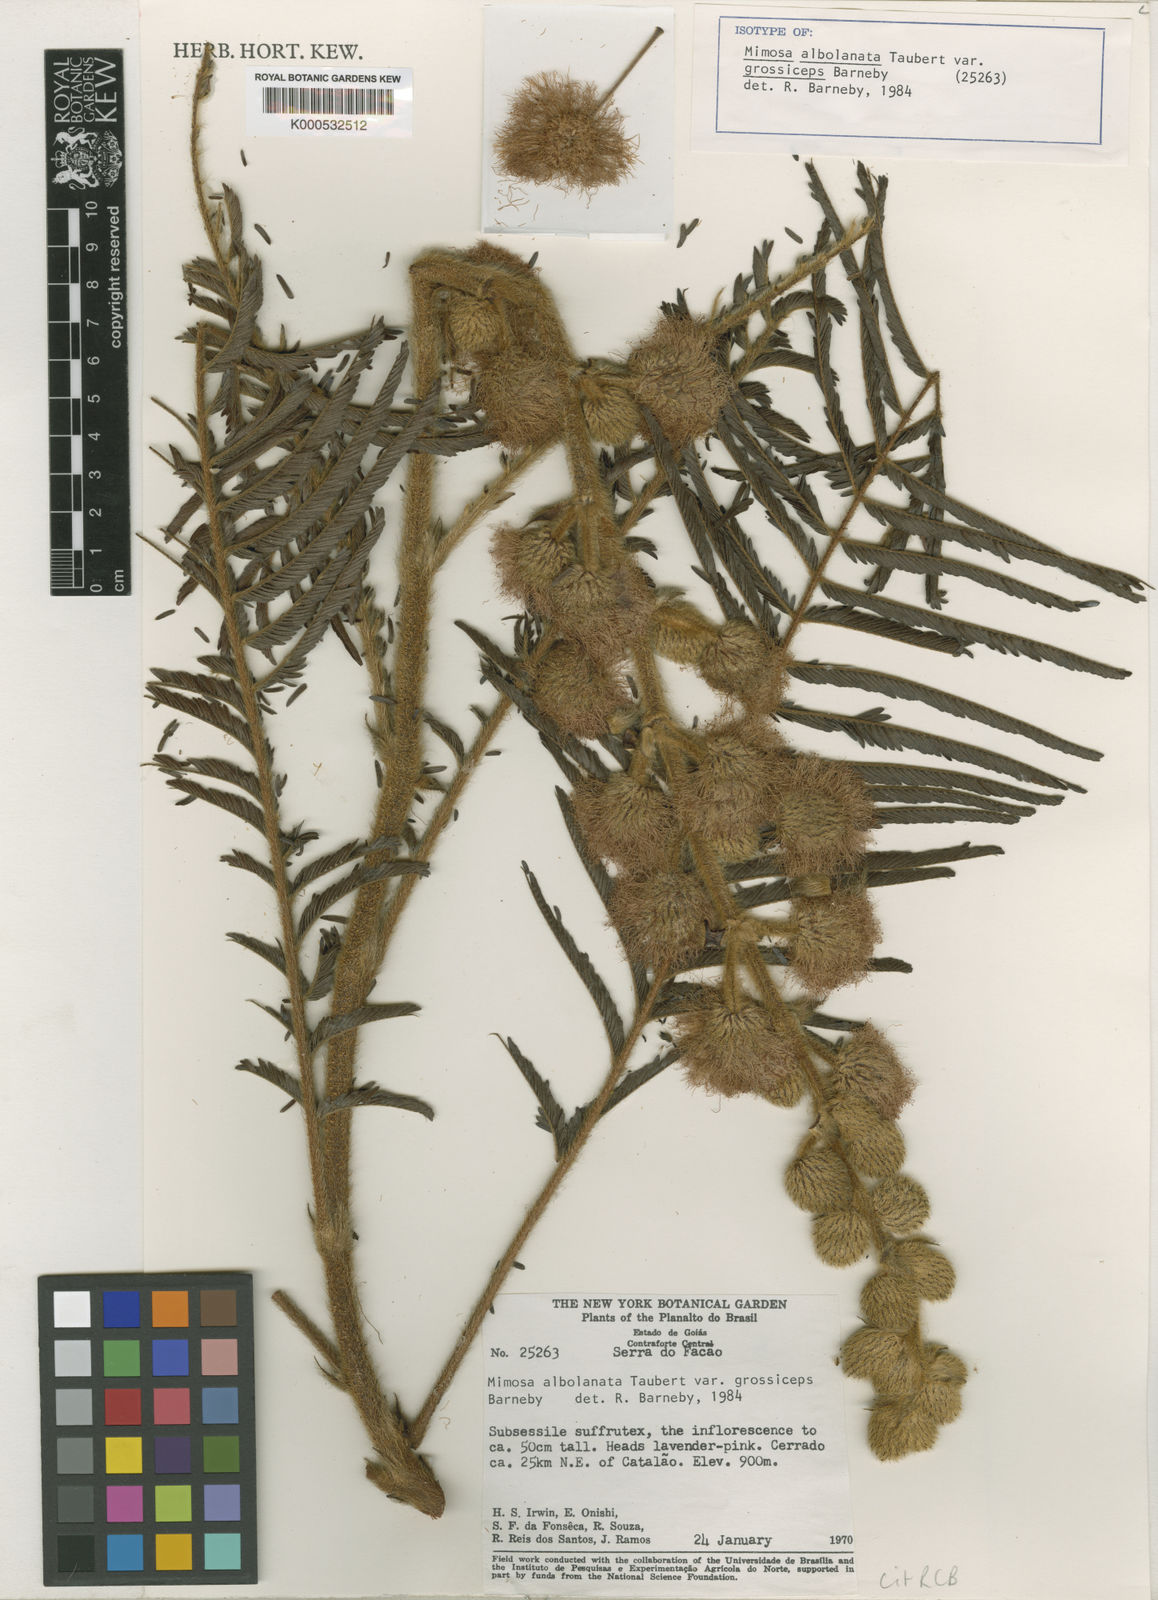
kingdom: Plantae
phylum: Tracheophyta
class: Magnoliopsida
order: Fabales
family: Fabaceae
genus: Mimosa
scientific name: Mimosa albolanata
